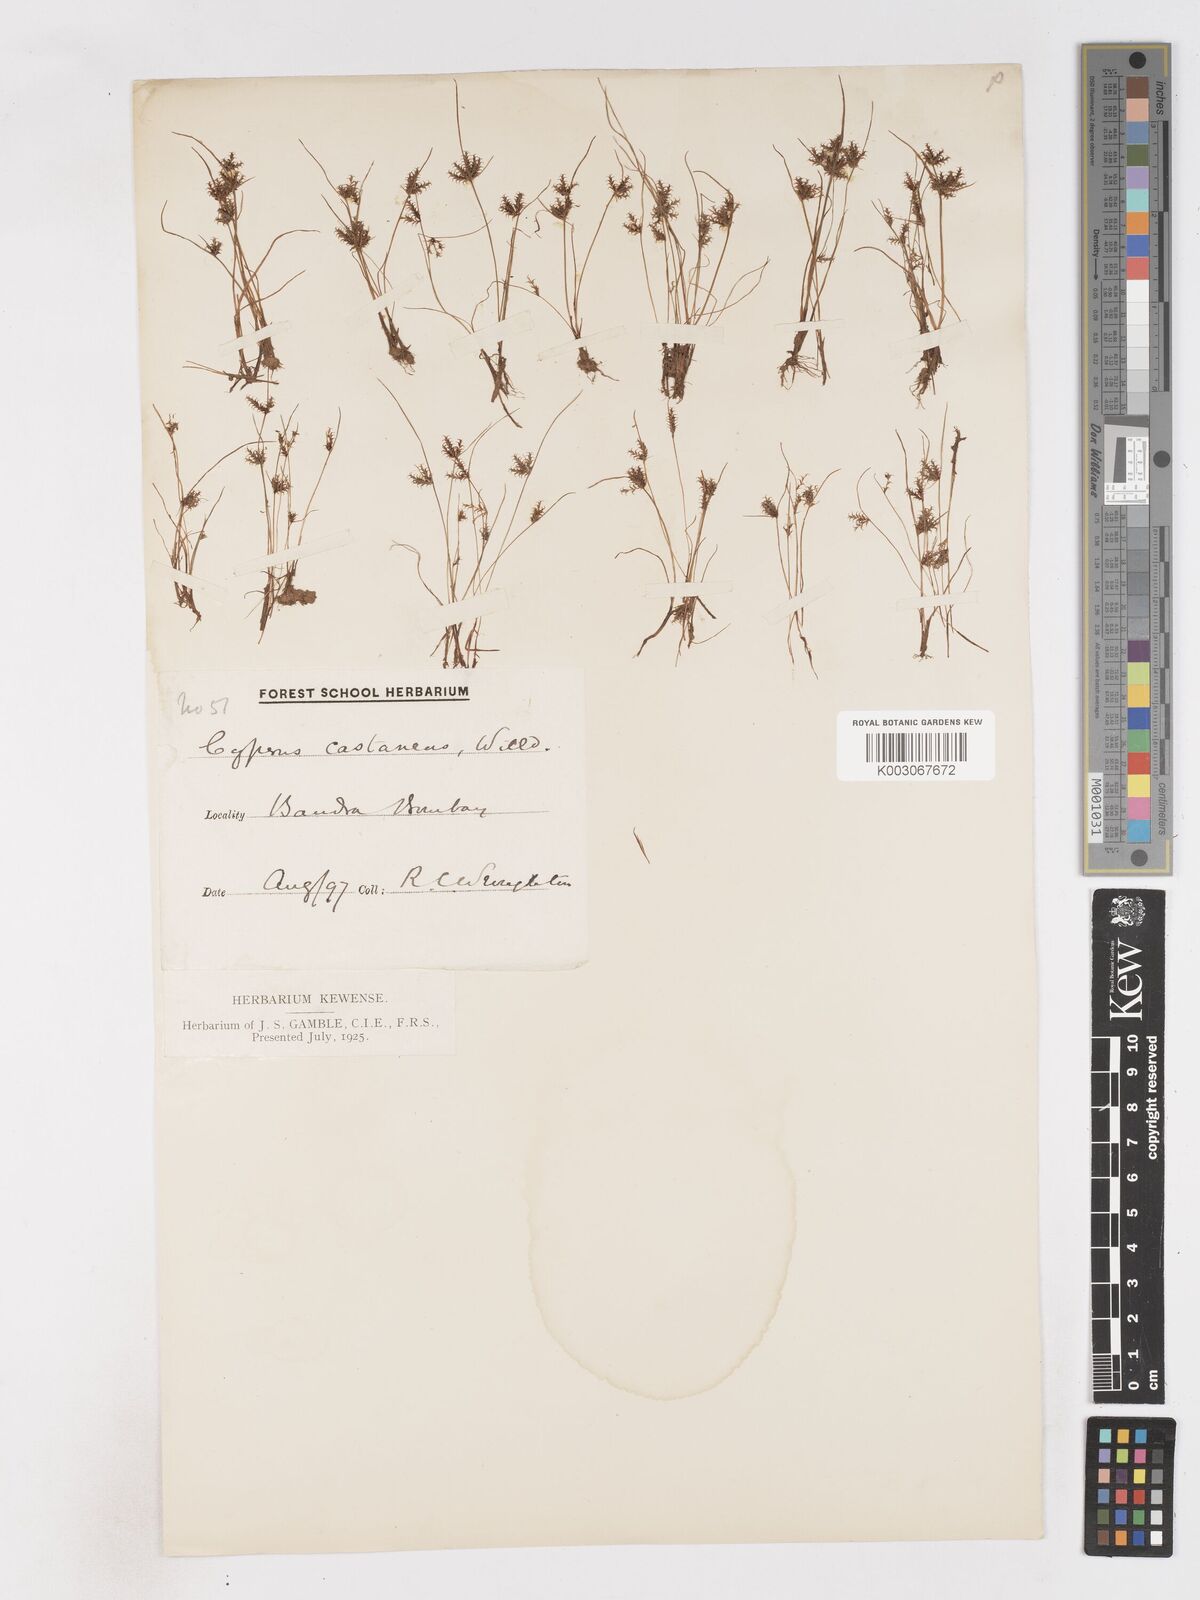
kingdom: Plantae
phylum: Tracheophyta
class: Liliopsida
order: Poales
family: Cyperaceae
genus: Cyperus
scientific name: Cyperus squarrosus
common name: Awned cyperus
